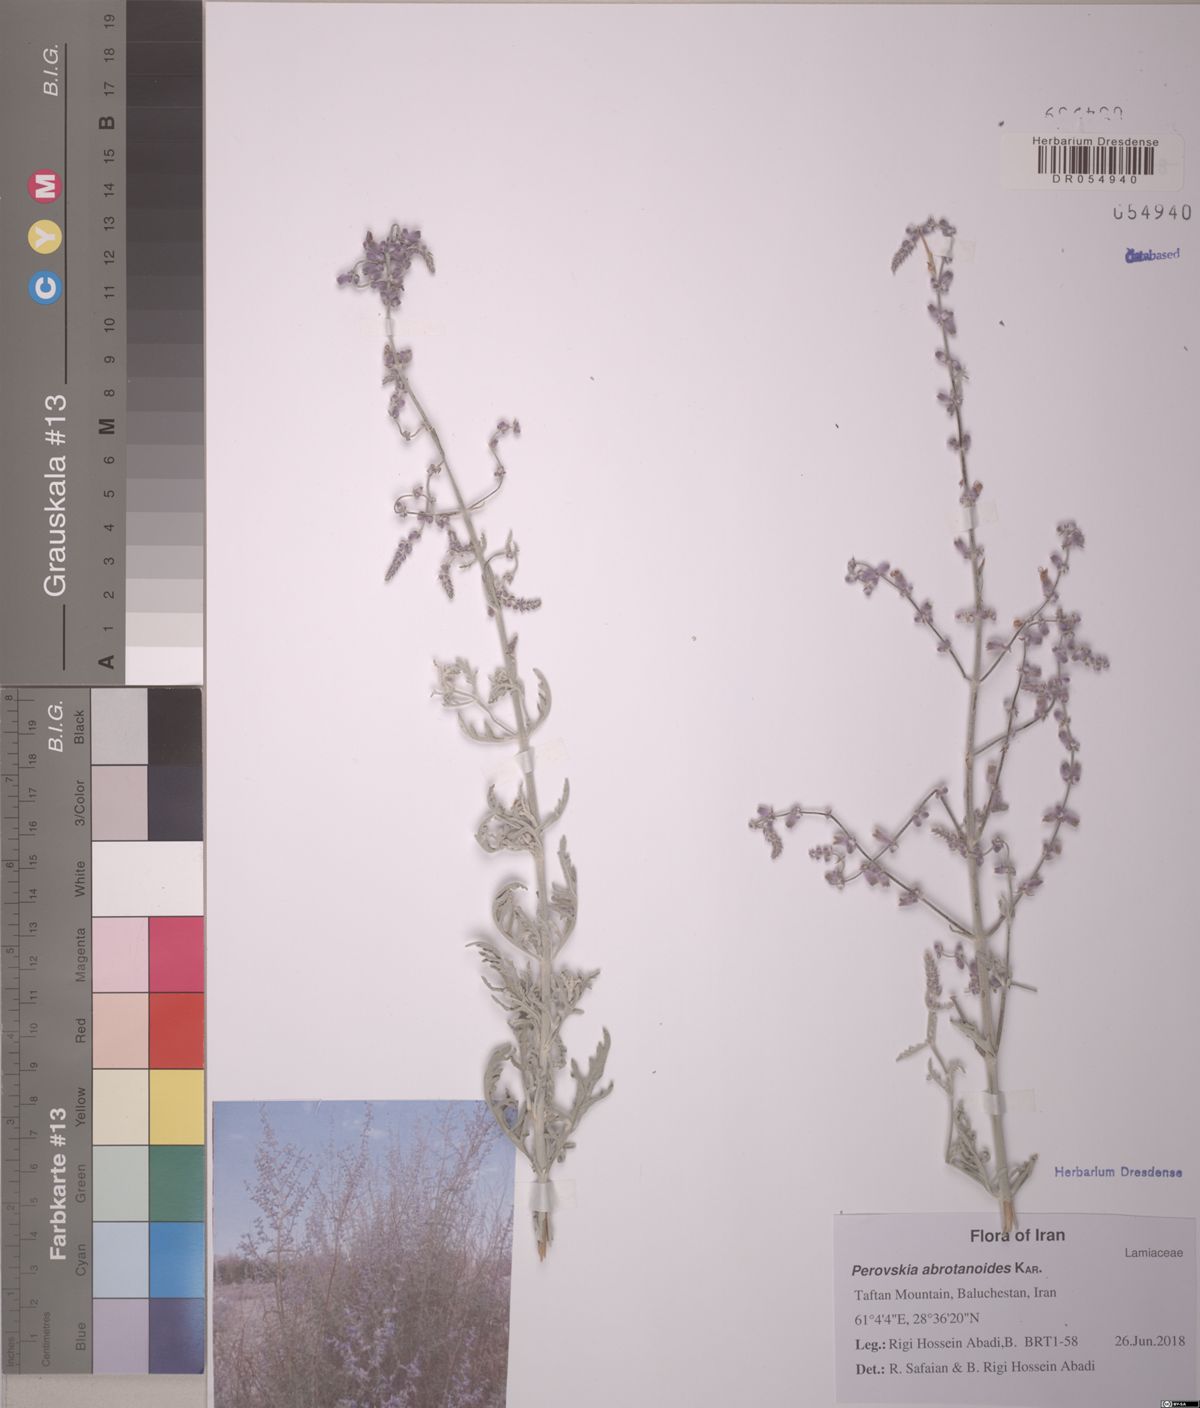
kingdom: Plantae
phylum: Tracheophyta
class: Magnoliopsida
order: Lamiales
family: Lamiaceae
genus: Salvia
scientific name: Salvia yangii
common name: Russian sage
